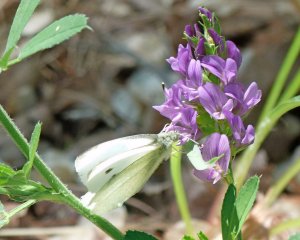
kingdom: Animalia
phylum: Arthropoda
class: Insecta
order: Lepidoptera
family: Pieridae
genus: Pieris
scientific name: Pieris rapae
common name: Cabbage White
